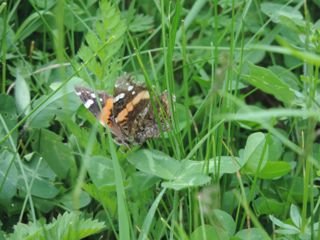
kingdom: Animalia
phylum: Arthropoda
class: Insecta
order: Lepidoptera
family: Nymphalidae
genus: Vanessa
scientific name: Vanessa atalanta
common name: Red Admiral
